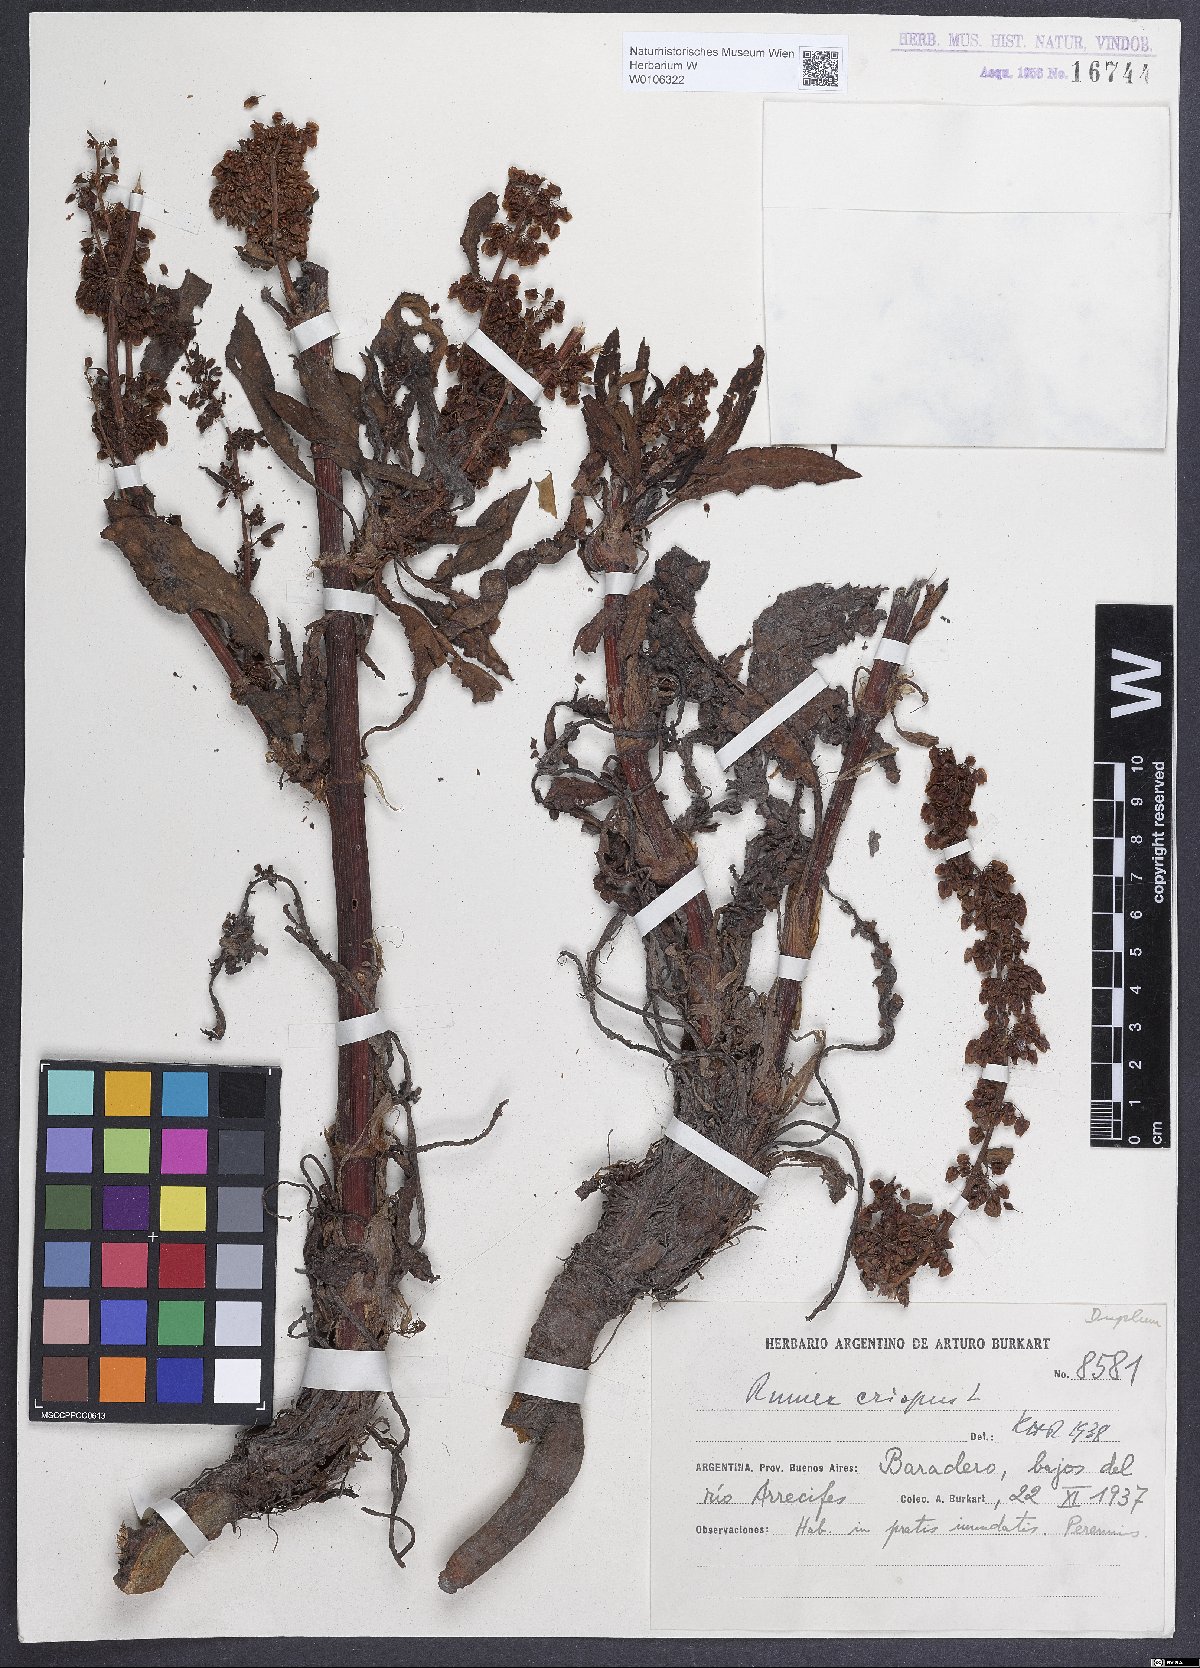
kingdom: Plantae
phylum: Tracheophyta
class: Magnoliopsida
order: Caryophyllales
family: Polygonaceae
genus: Rumex
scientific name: Rumex crispus
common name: Curled dock
